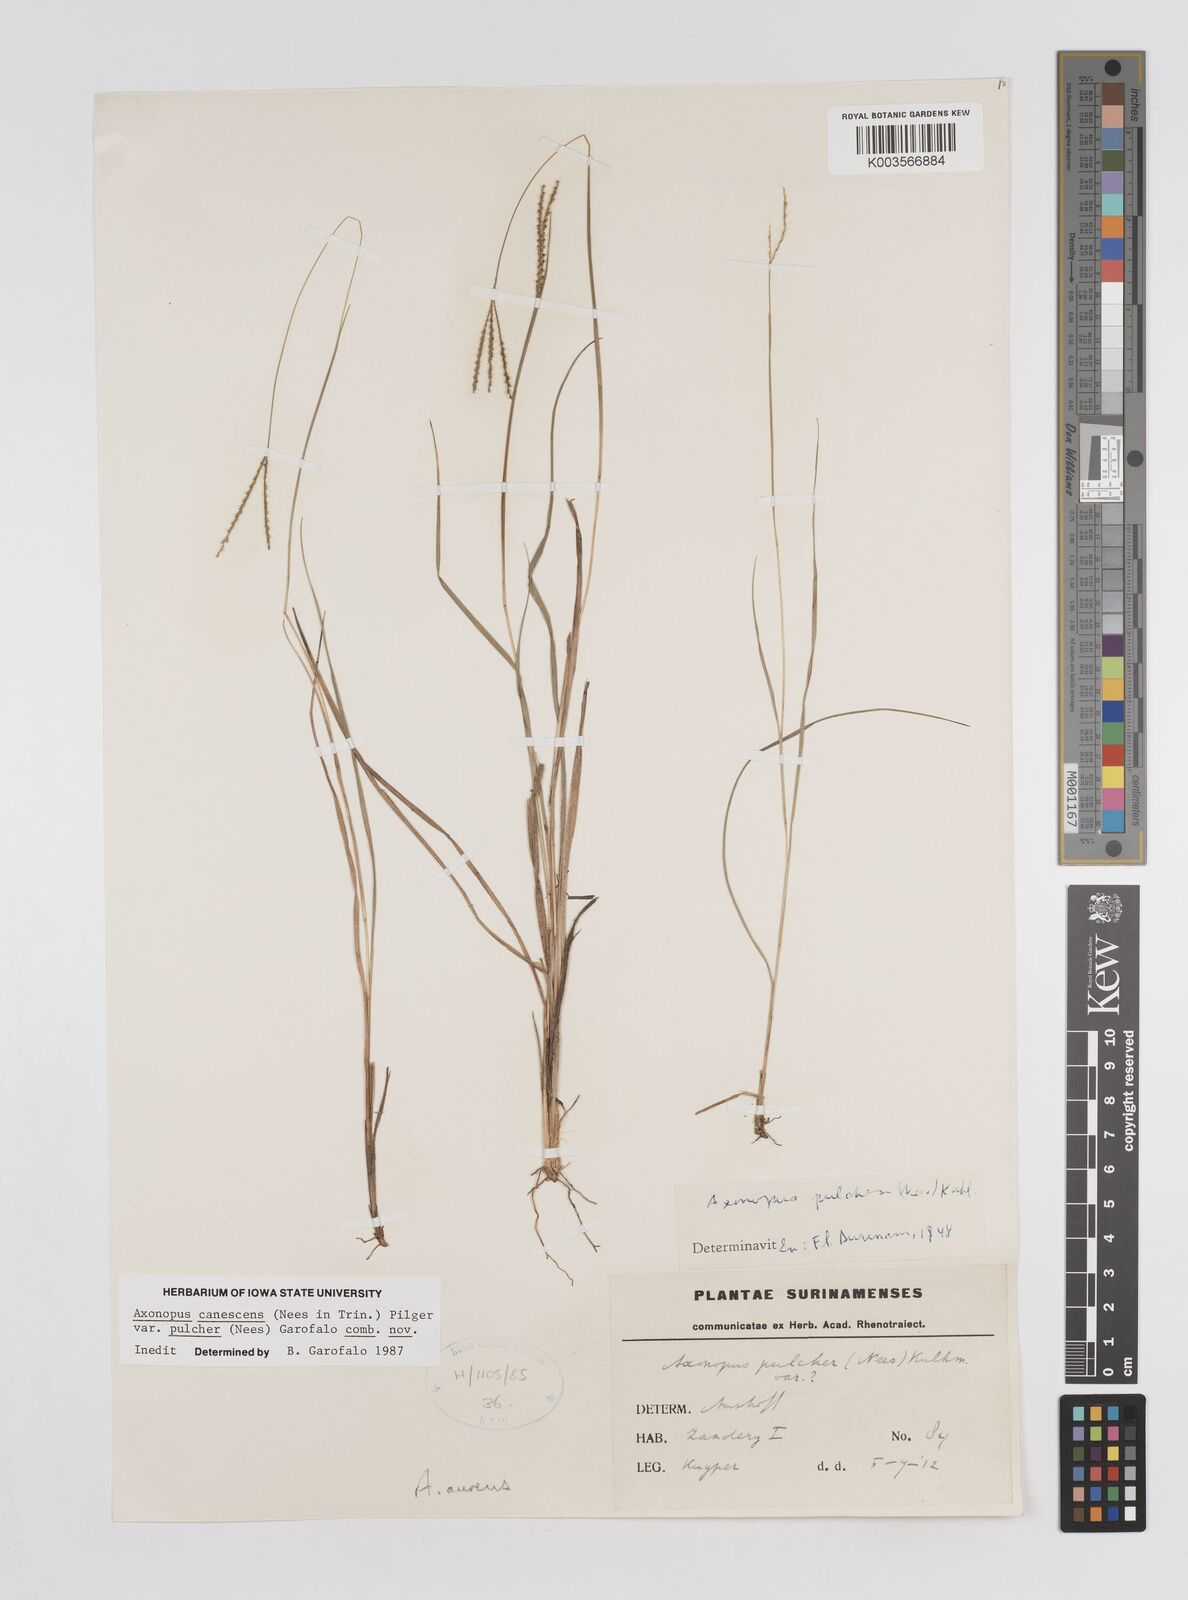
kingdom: Plantae
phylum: Tracheophyta
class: Liliopsida
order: Poales
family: Poaceae
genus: Axonopus
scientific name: Axonopus aureus
